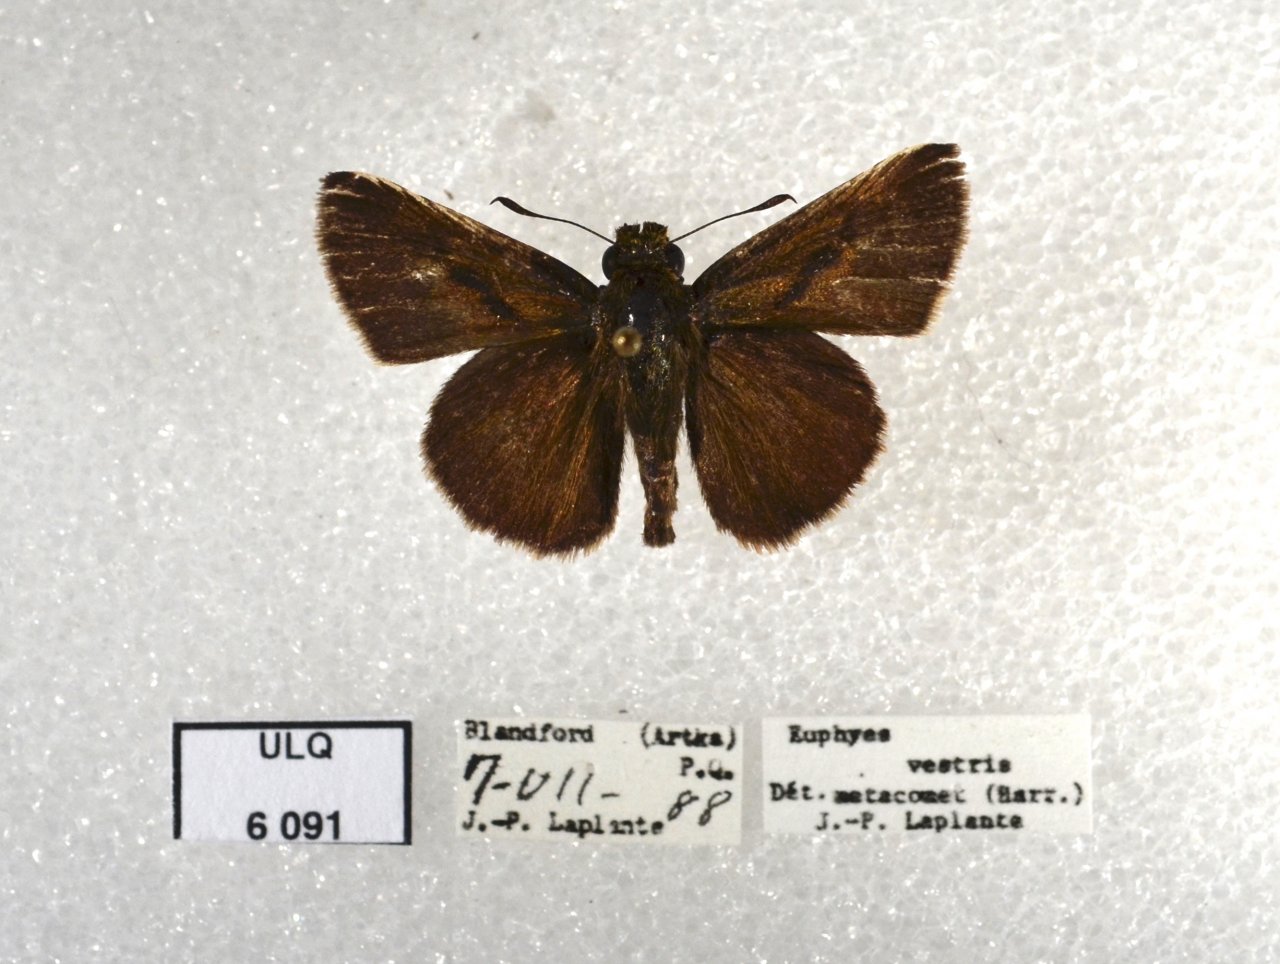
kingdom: Animalia
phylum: Arthropoda
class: Insecta
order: Lepidoptera
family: Hesperiidae
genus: Euphyes
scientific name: Euphyes vestris
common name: Dun Skipper
